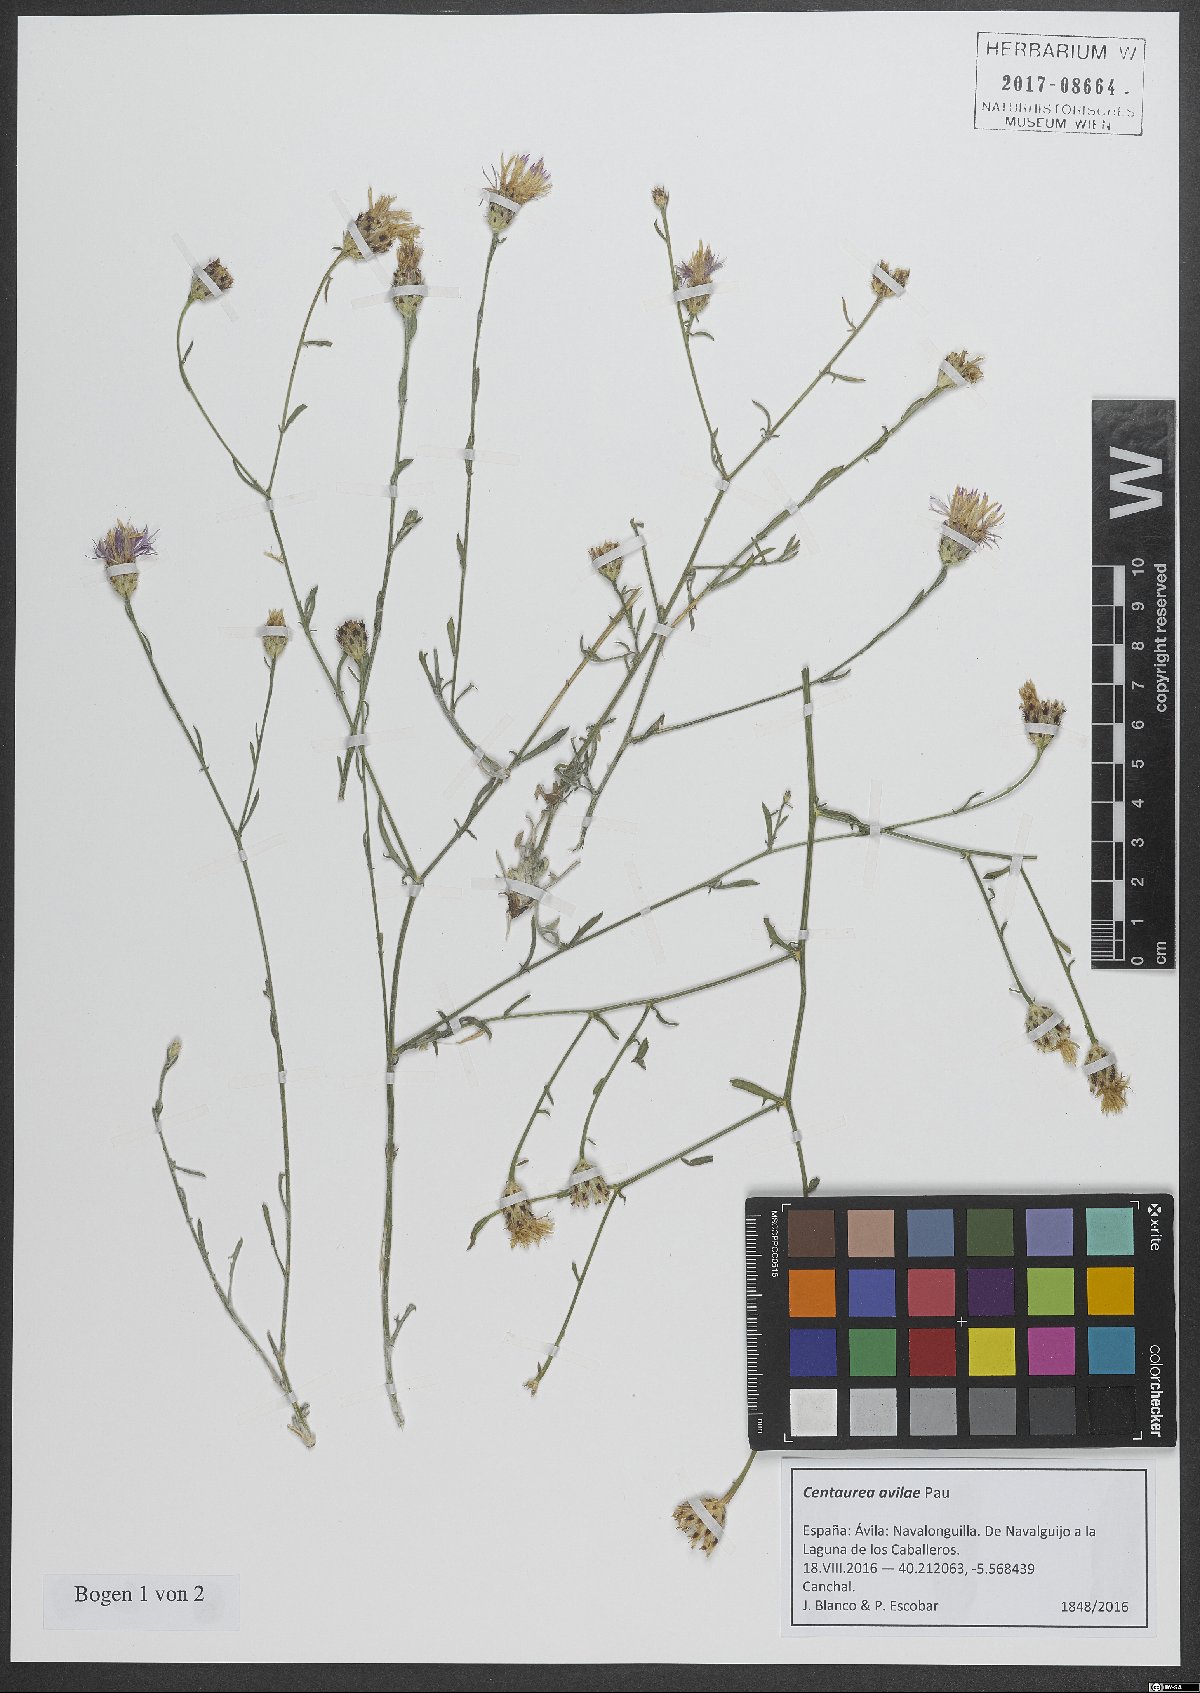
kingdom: Plantae
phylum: Tracheophyta
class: Magnoliopsida
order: Asterales
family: Asteraceae
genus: Centaurea
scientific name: Centaurea avilae
